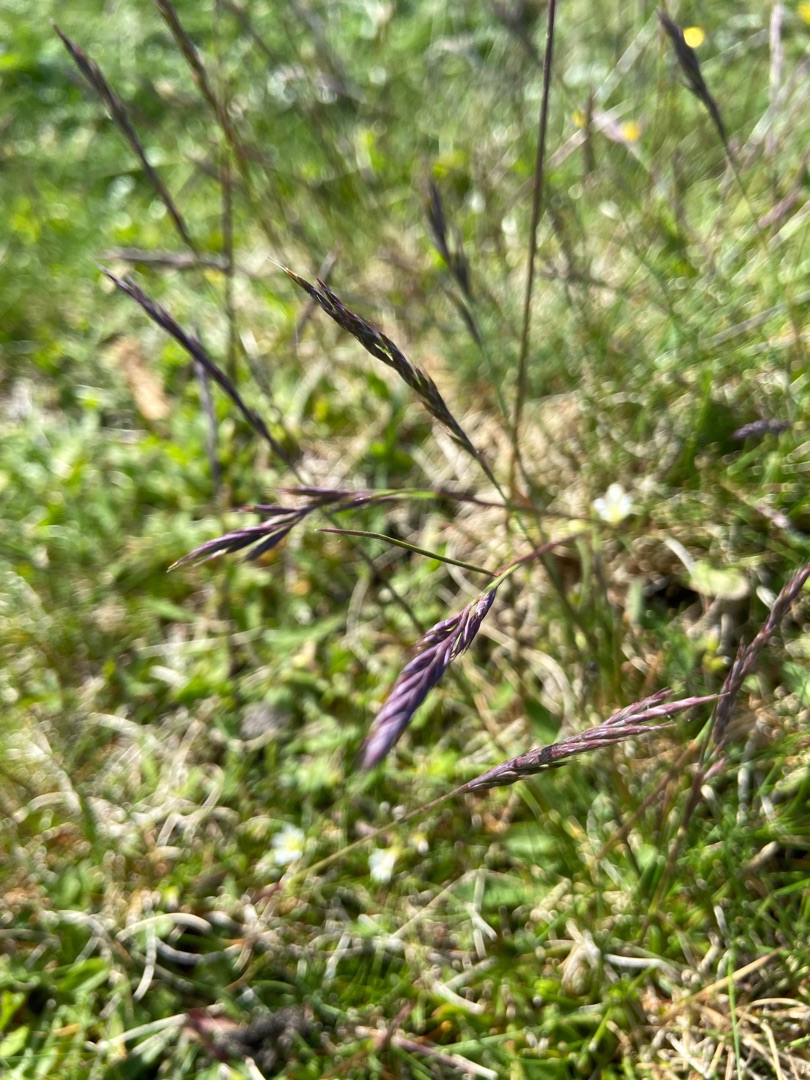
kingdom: Plantae
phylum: Tracheophyta
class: Liliopsida
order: Poales
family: Poaceae
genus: Festuca
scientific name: Festuca
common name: Svingelslægten
